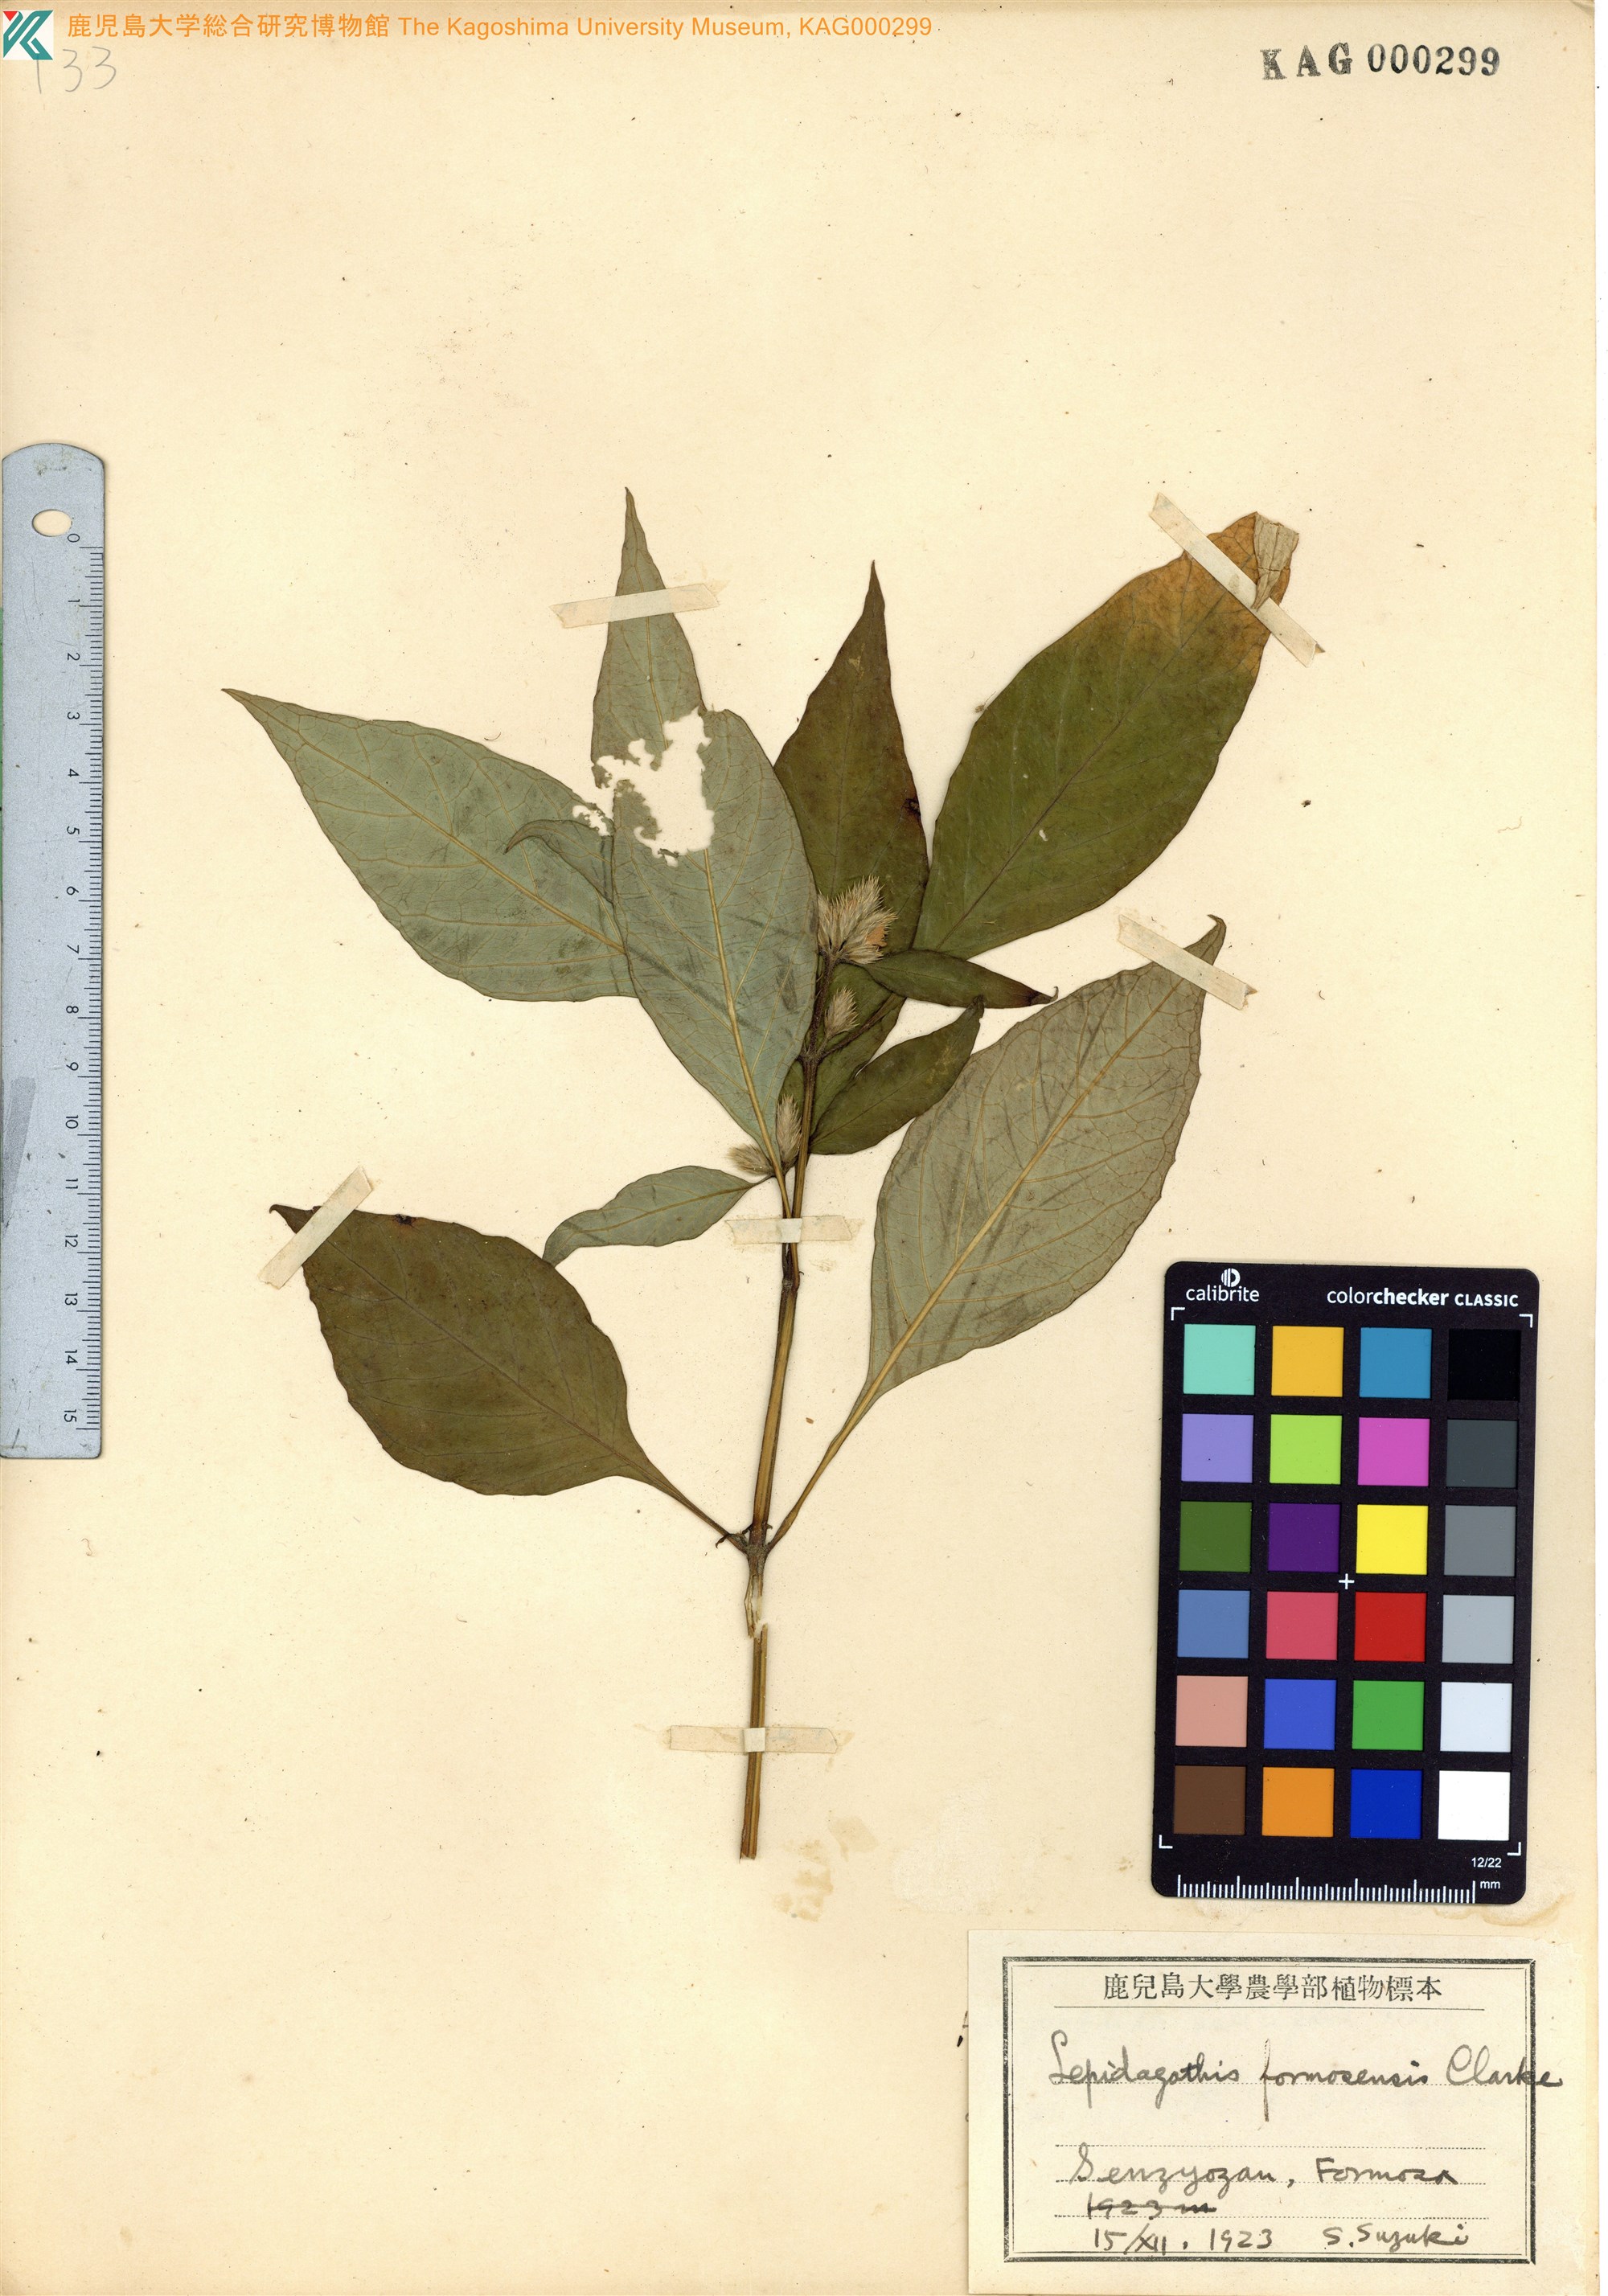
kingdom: Plantae
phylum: Tracheophyta
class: Magnoliopsida
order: Lamiales
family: Acanthaceae
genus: Lepidagathis
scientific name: Lepidagathis formosensis
